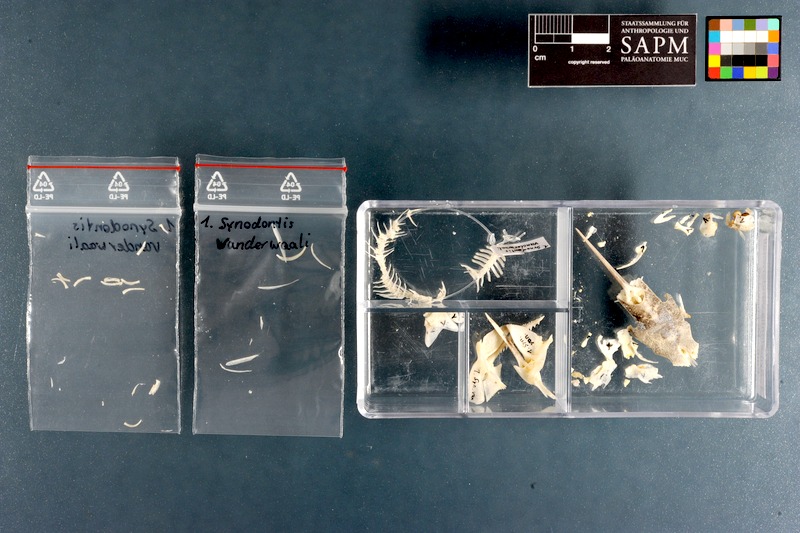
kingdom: Animalia
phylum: Chordata
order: Siluriformes
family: Mochokidae
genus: Synodontis
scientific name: Synodontis vanderwaali
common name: Finetooth squeaker
